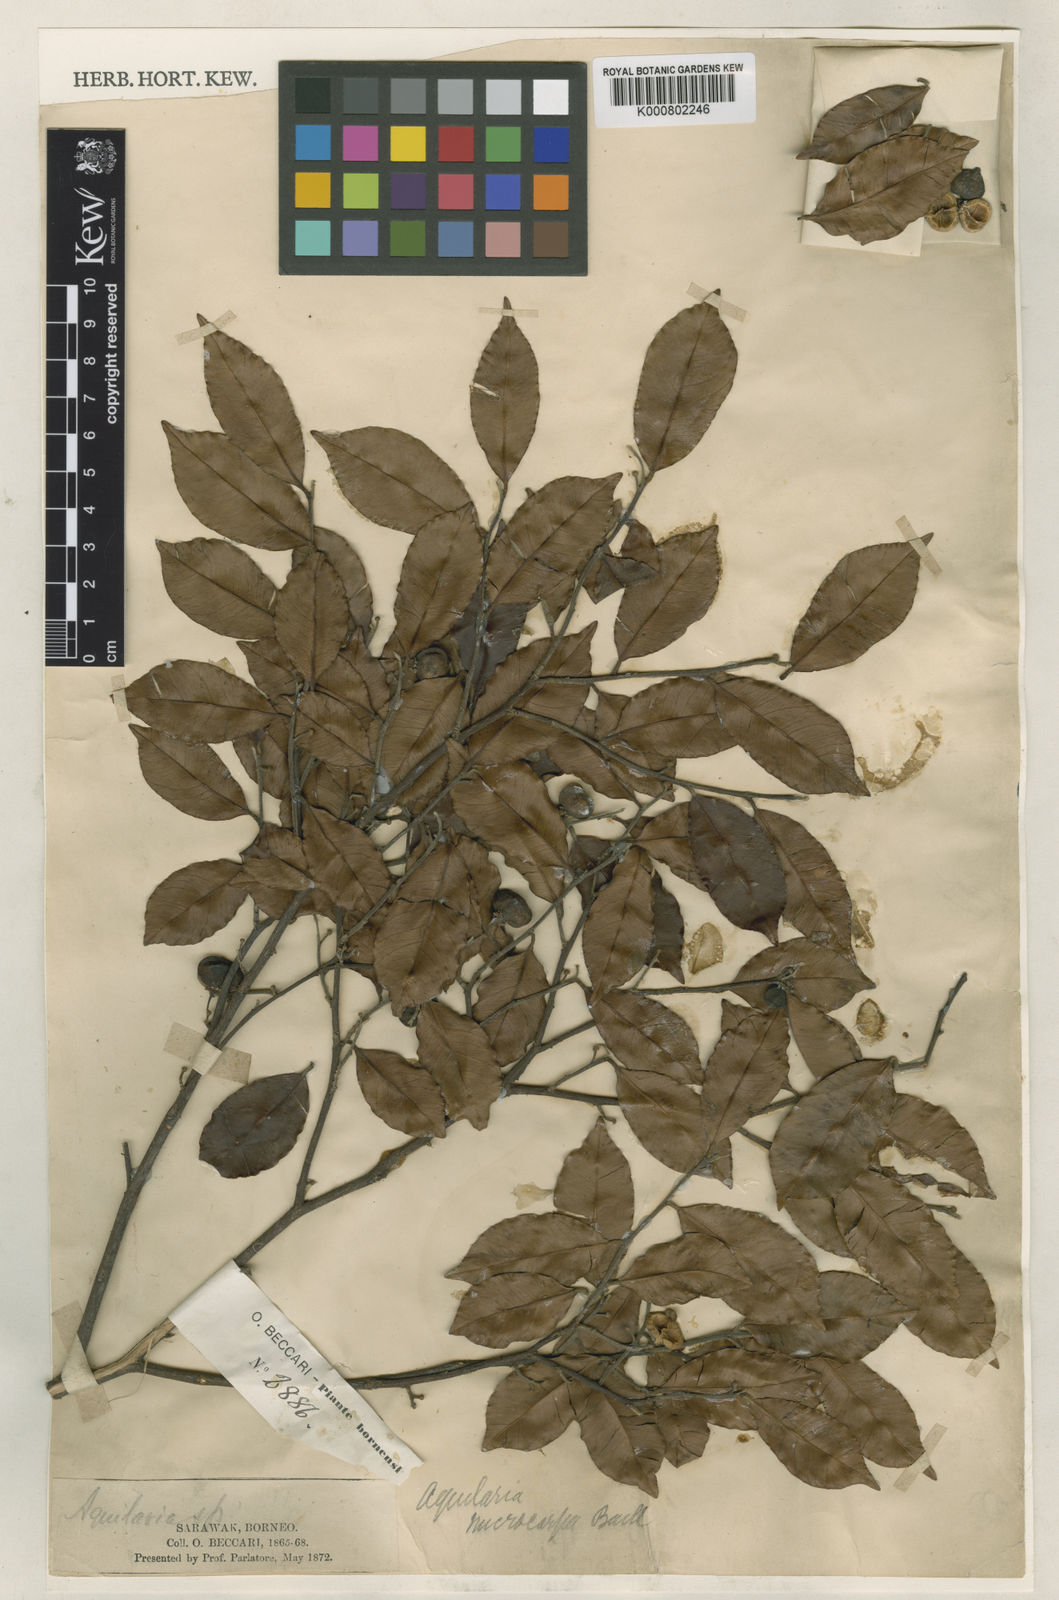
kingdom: Plantae
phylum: Tracheophyta
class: Magnoliopsida
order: Malvales
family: Thymelaeaceae
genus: Aquilaria
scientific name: Aquilaria microcarpa
